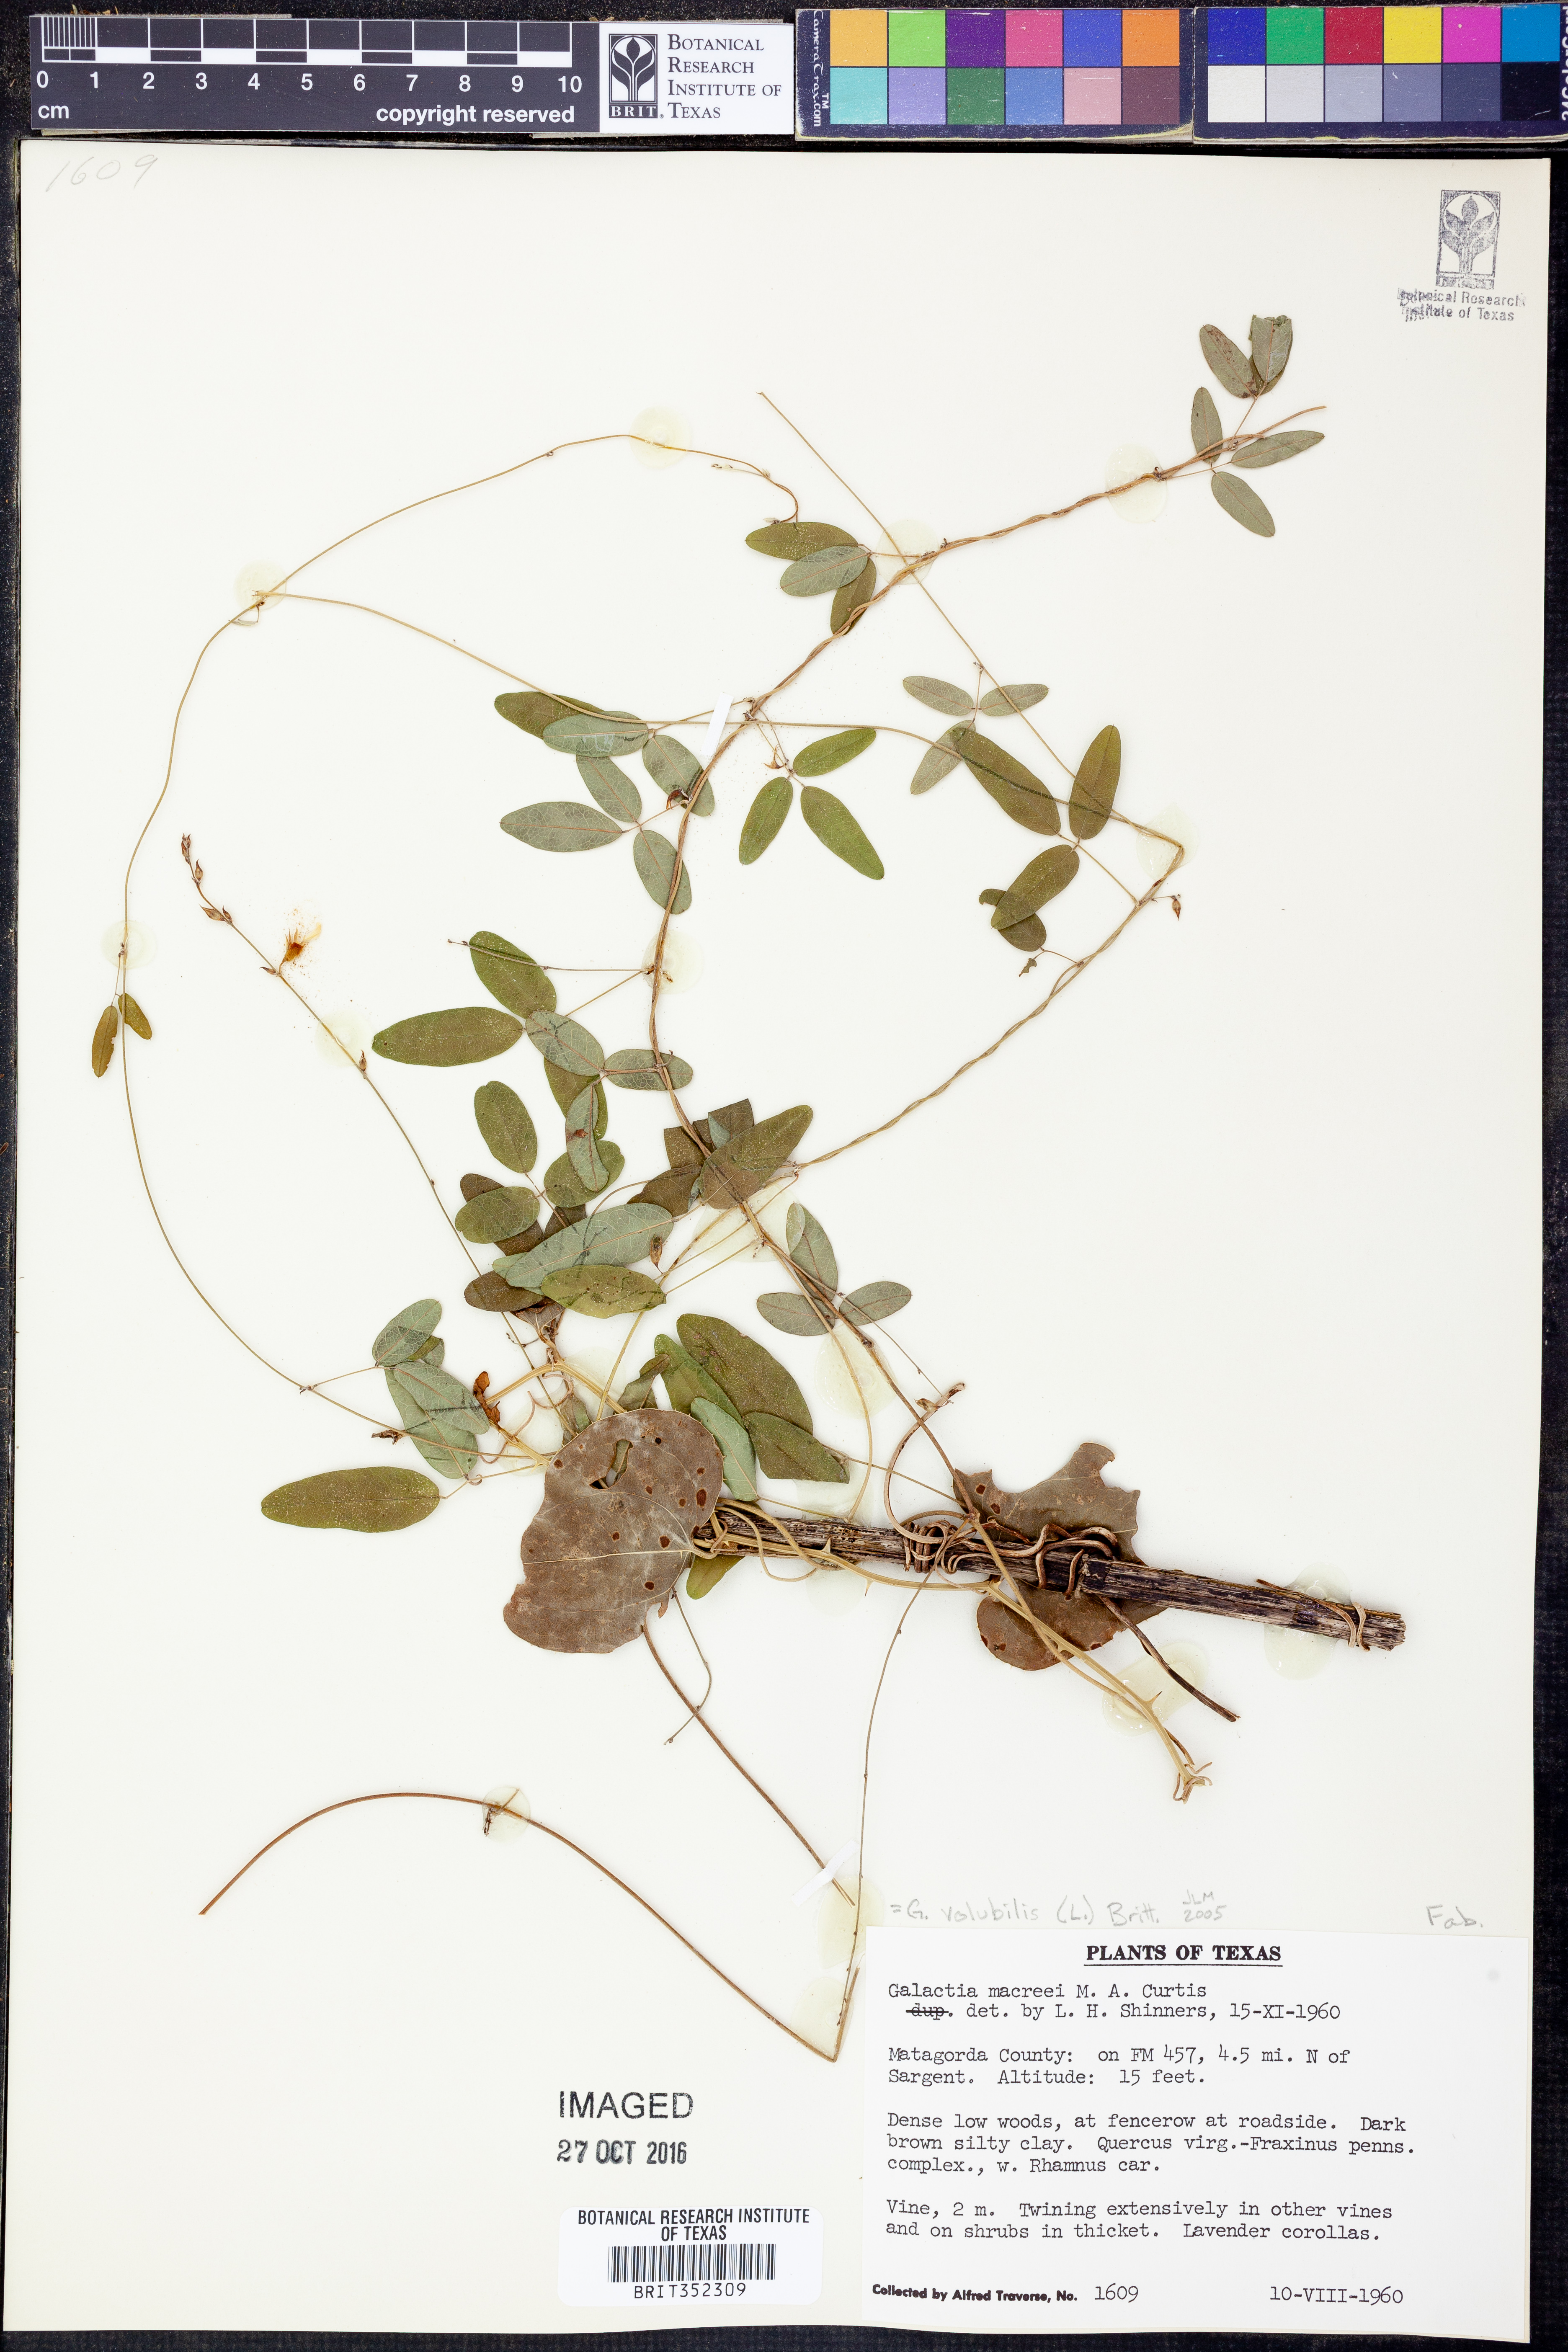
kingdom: Plantae
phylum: Tracheophyta
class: Magnoliopsida
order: Fabales
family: Fabaceae
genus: Galactia
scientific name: Galactia volubilis
